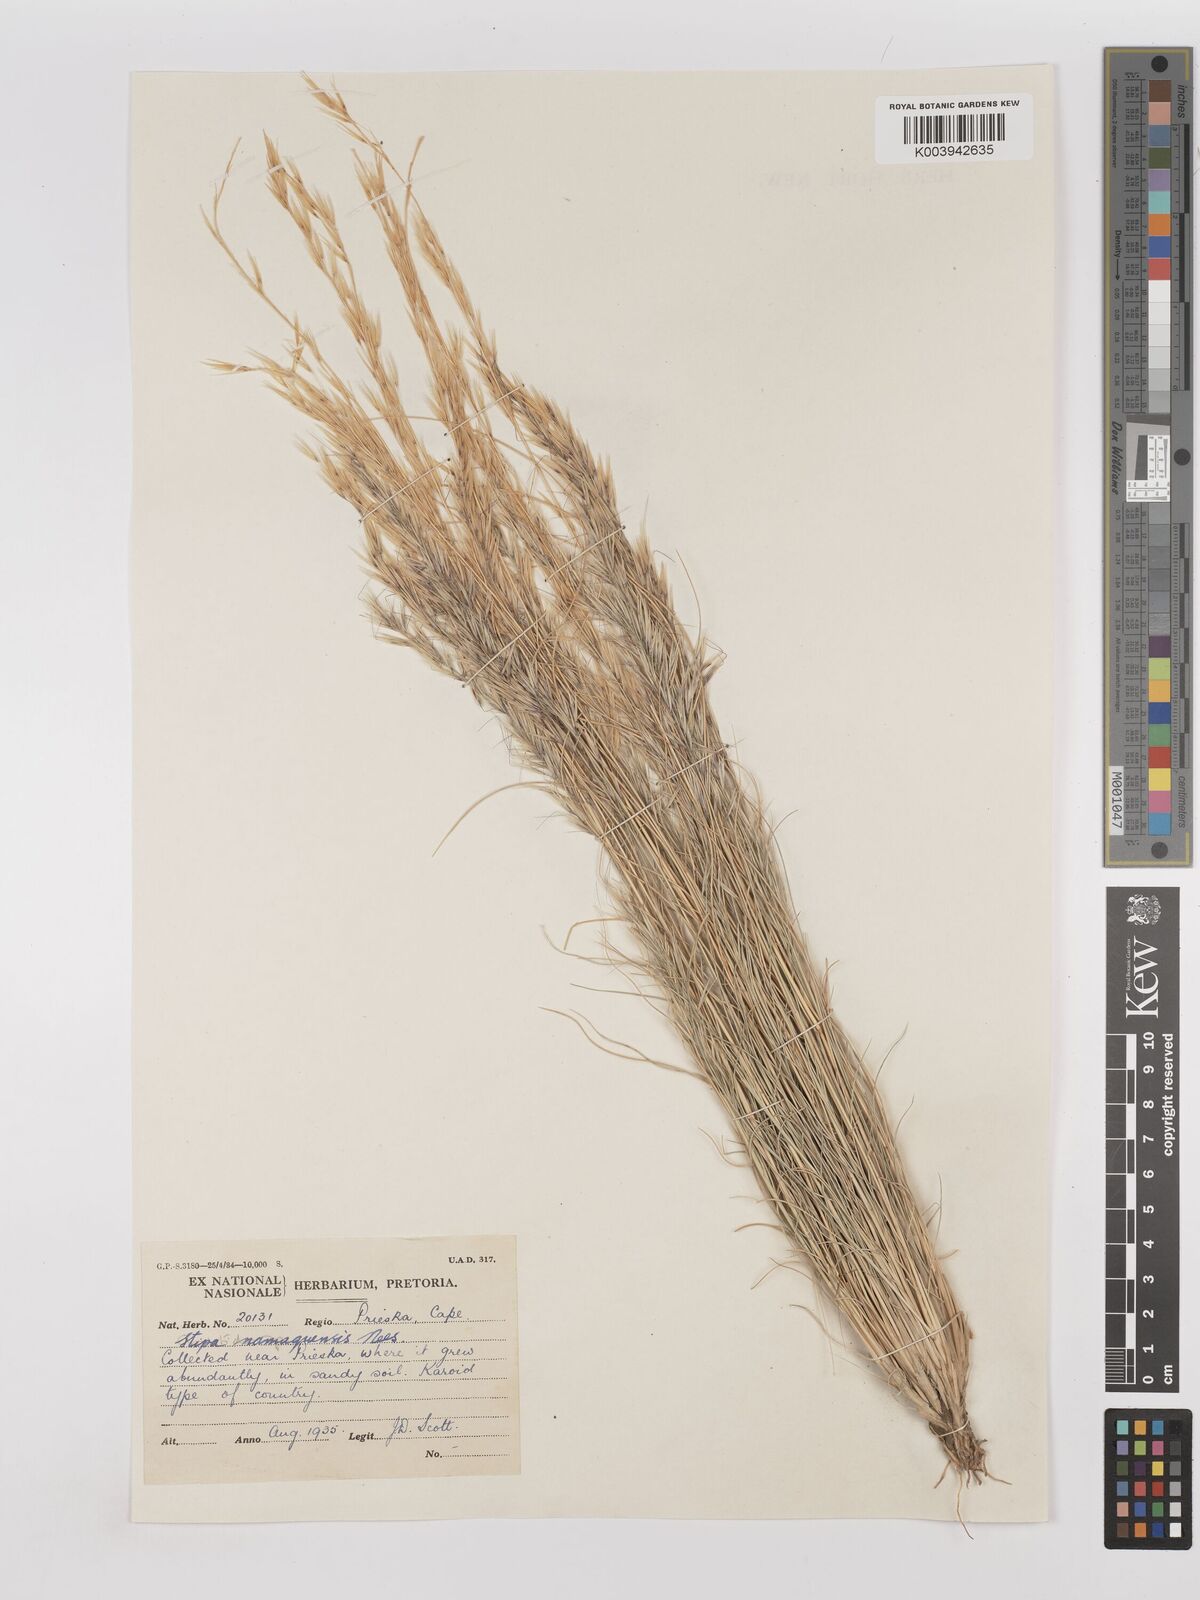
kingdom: Plantae
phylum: Tracheophyta
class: Liliopsida
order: Poales
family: Poaceae
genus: Stipagrostis
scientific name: Stipagrostis anomala
